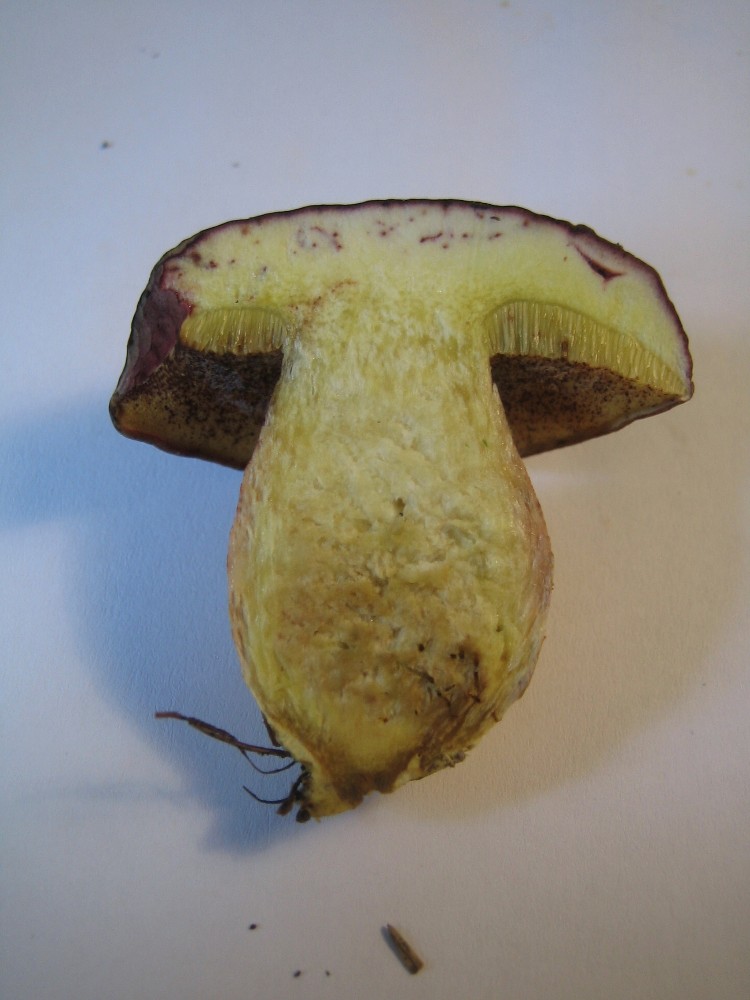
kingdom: Fungi
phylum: Basidiomycota
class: Agaricomycetes
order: Boletales
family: Boletaceae
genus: Xerocomellus
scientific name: Xerocomellus pruinatus
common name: dugget rørhat
